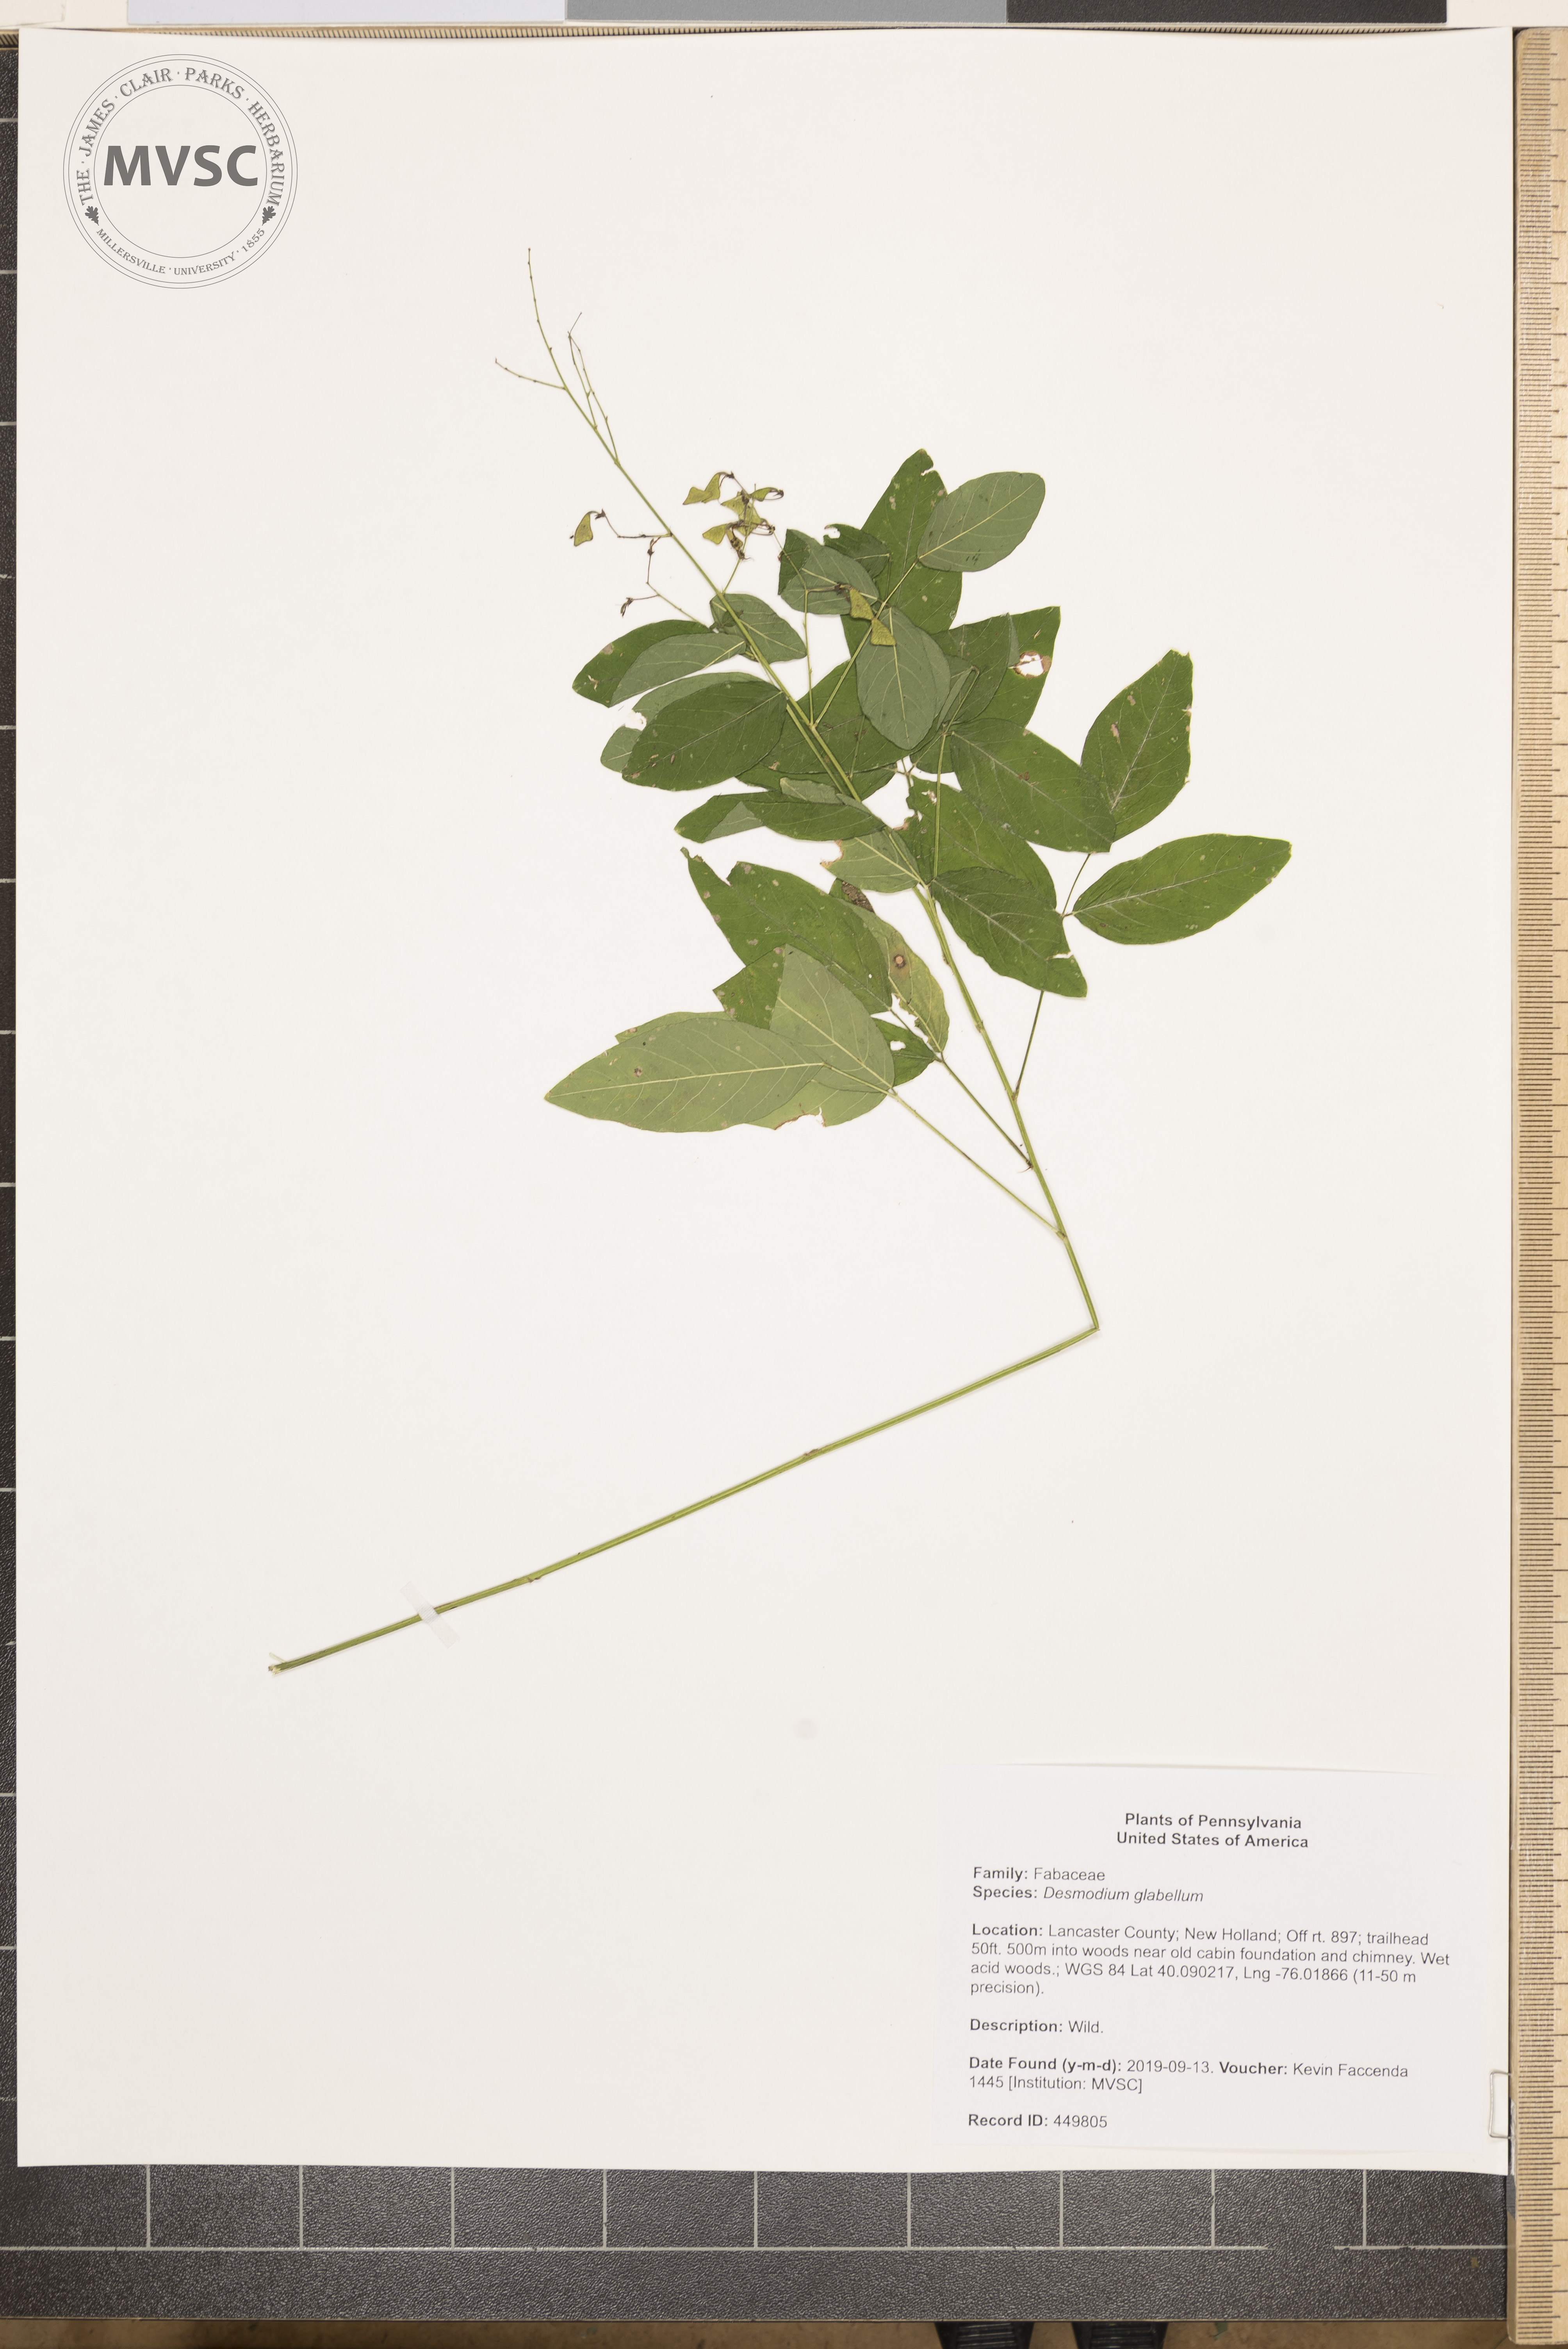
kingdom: Plantae
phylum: Tracheophyta
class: Magnoliopsida
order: Fabales
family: Fabaceae
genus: Desmodium
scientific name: Desmodium cuspidatum
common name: tick-trefoil
